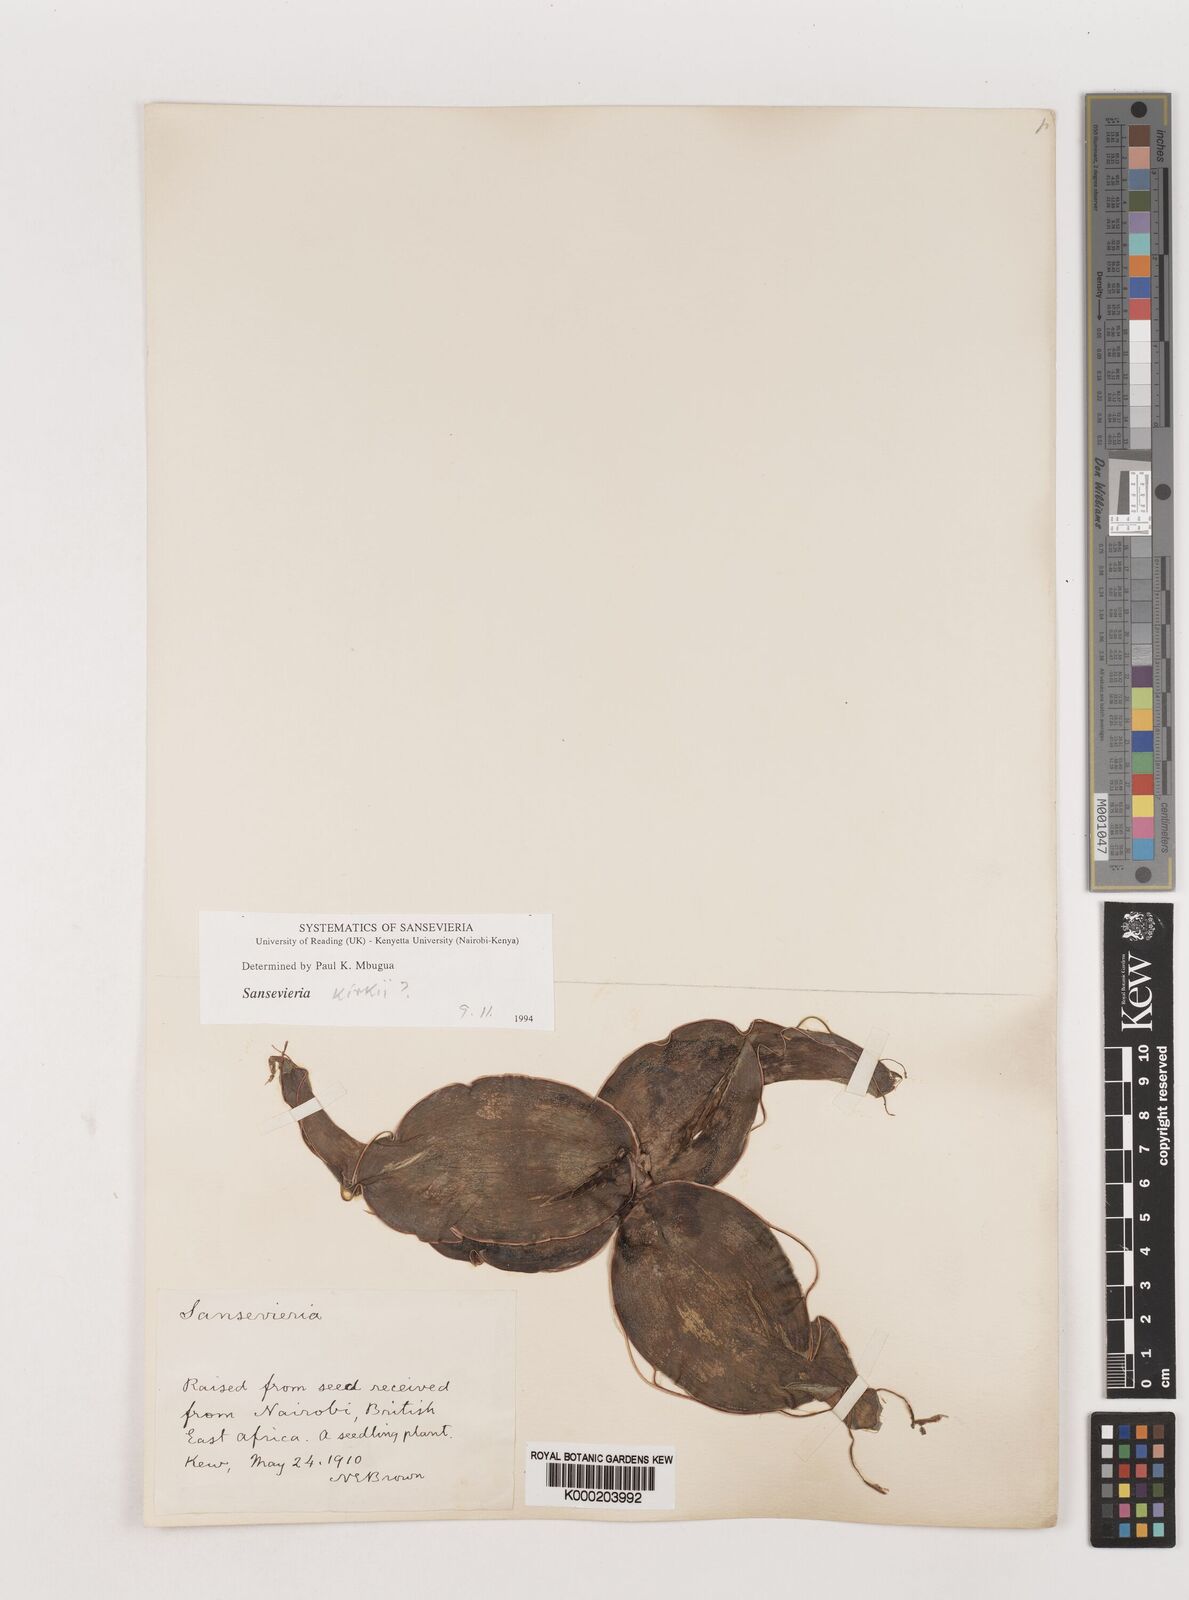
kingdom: Plantae
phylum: Tracheophyta
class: Liliopsida
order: Asparagales
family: Asparagaceae
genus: Dracaena
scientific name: Dracaena
